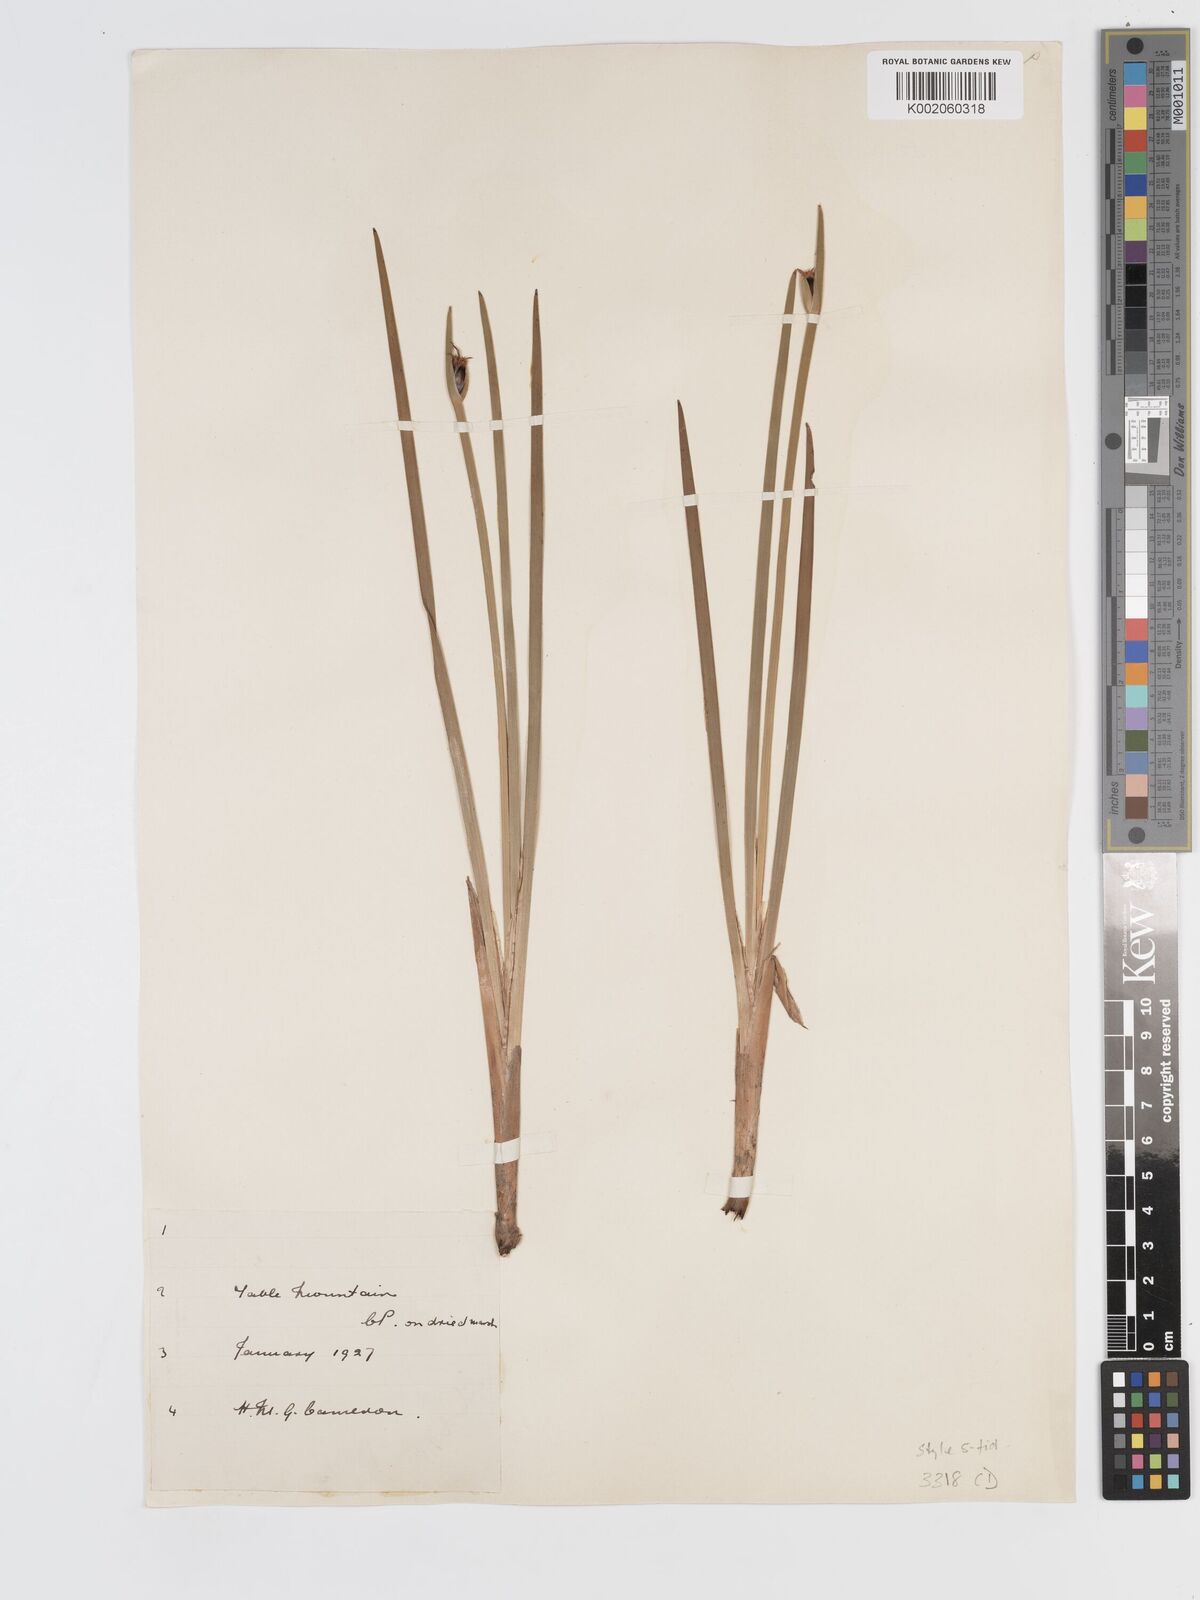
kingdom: Plantae
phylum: Tracheophyta
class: Liliopsida
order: Poales
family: Cyperaceae
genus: Chrysitrix
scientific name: Chrysitrix capensis
